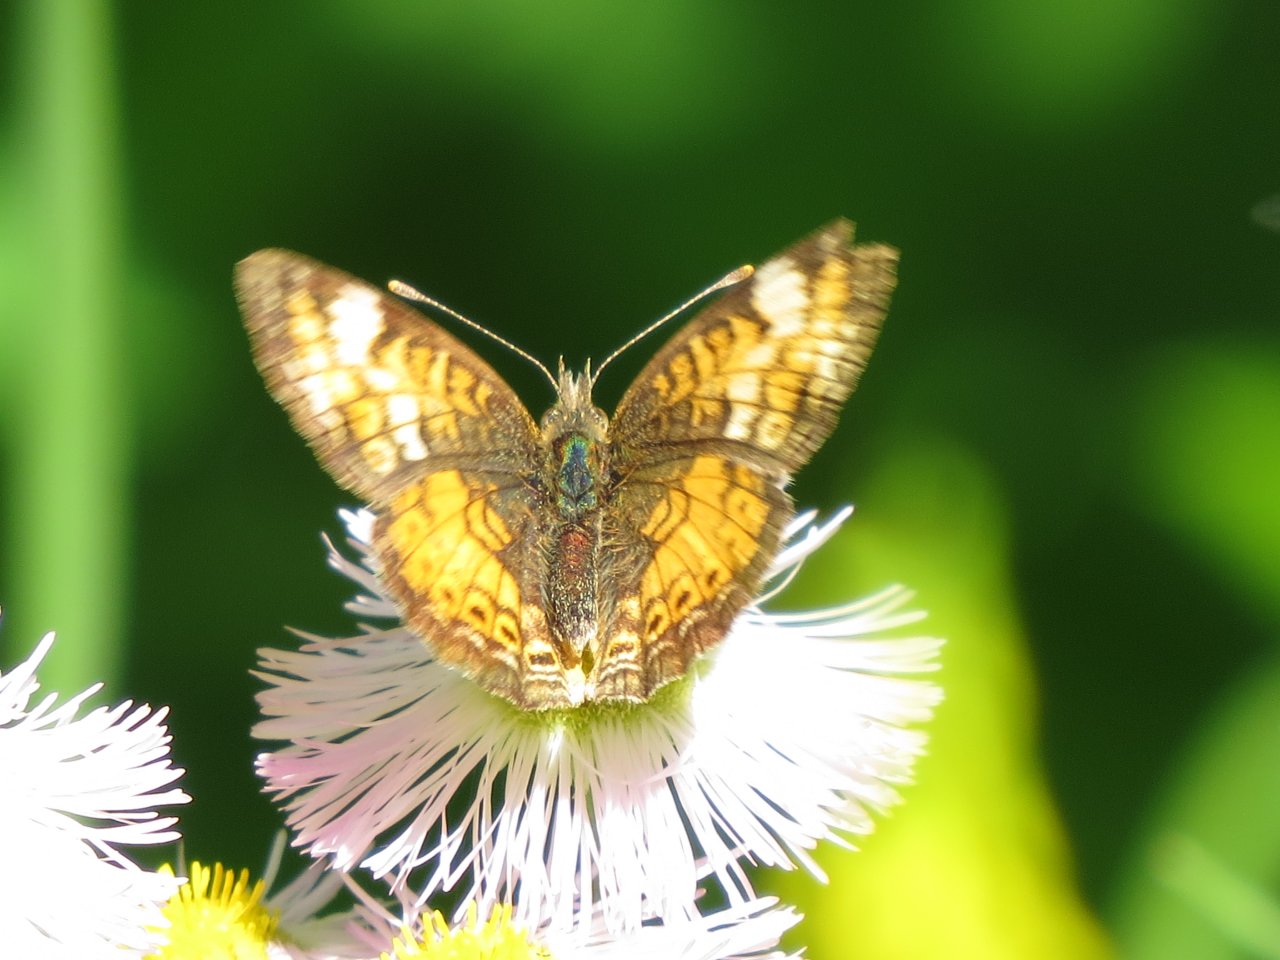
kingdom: Animalia
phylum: Arthropoda
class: Insecta
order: Lepidoptera
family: Nymphalidae
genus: Phyciodes
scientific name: Phyciodes tharos
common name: Northern Crescent
